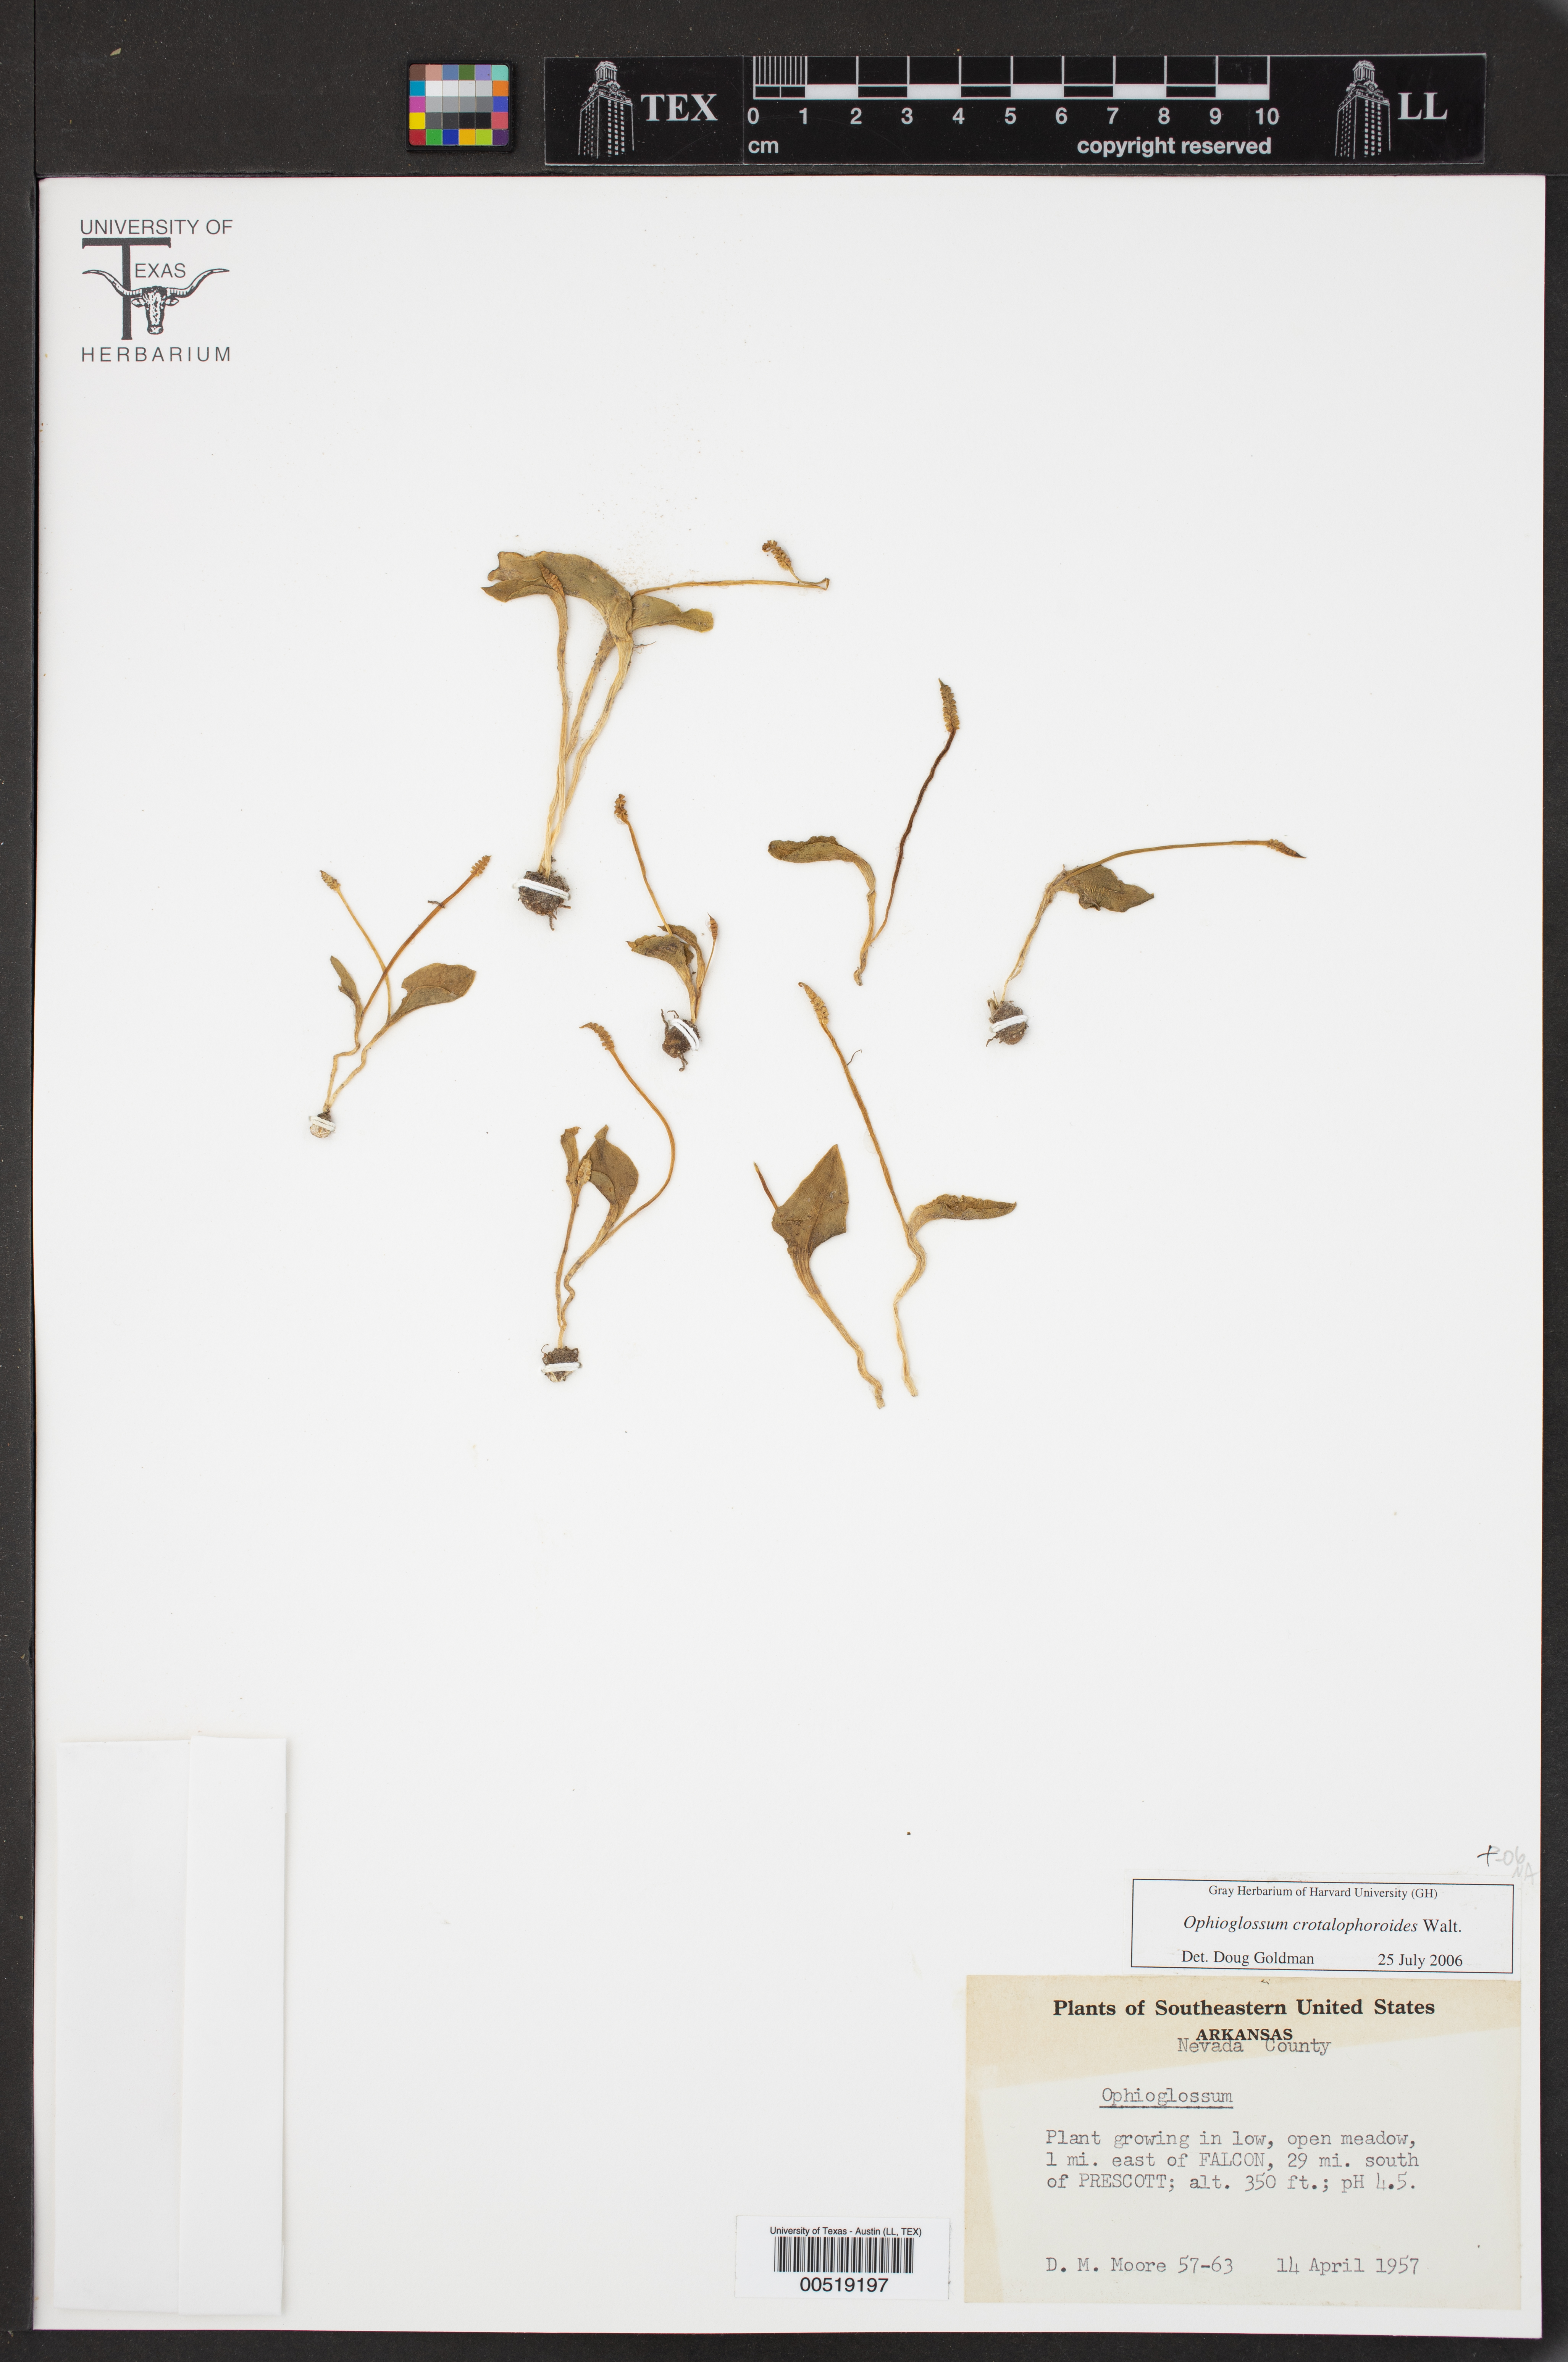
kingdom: Plantae
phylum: Tracheophyta
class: Polypodiopsida
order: Ophioglossales
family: Ophioglossaceae
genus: Ophioglossum
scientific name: Ophioglossum crotalophoroides
